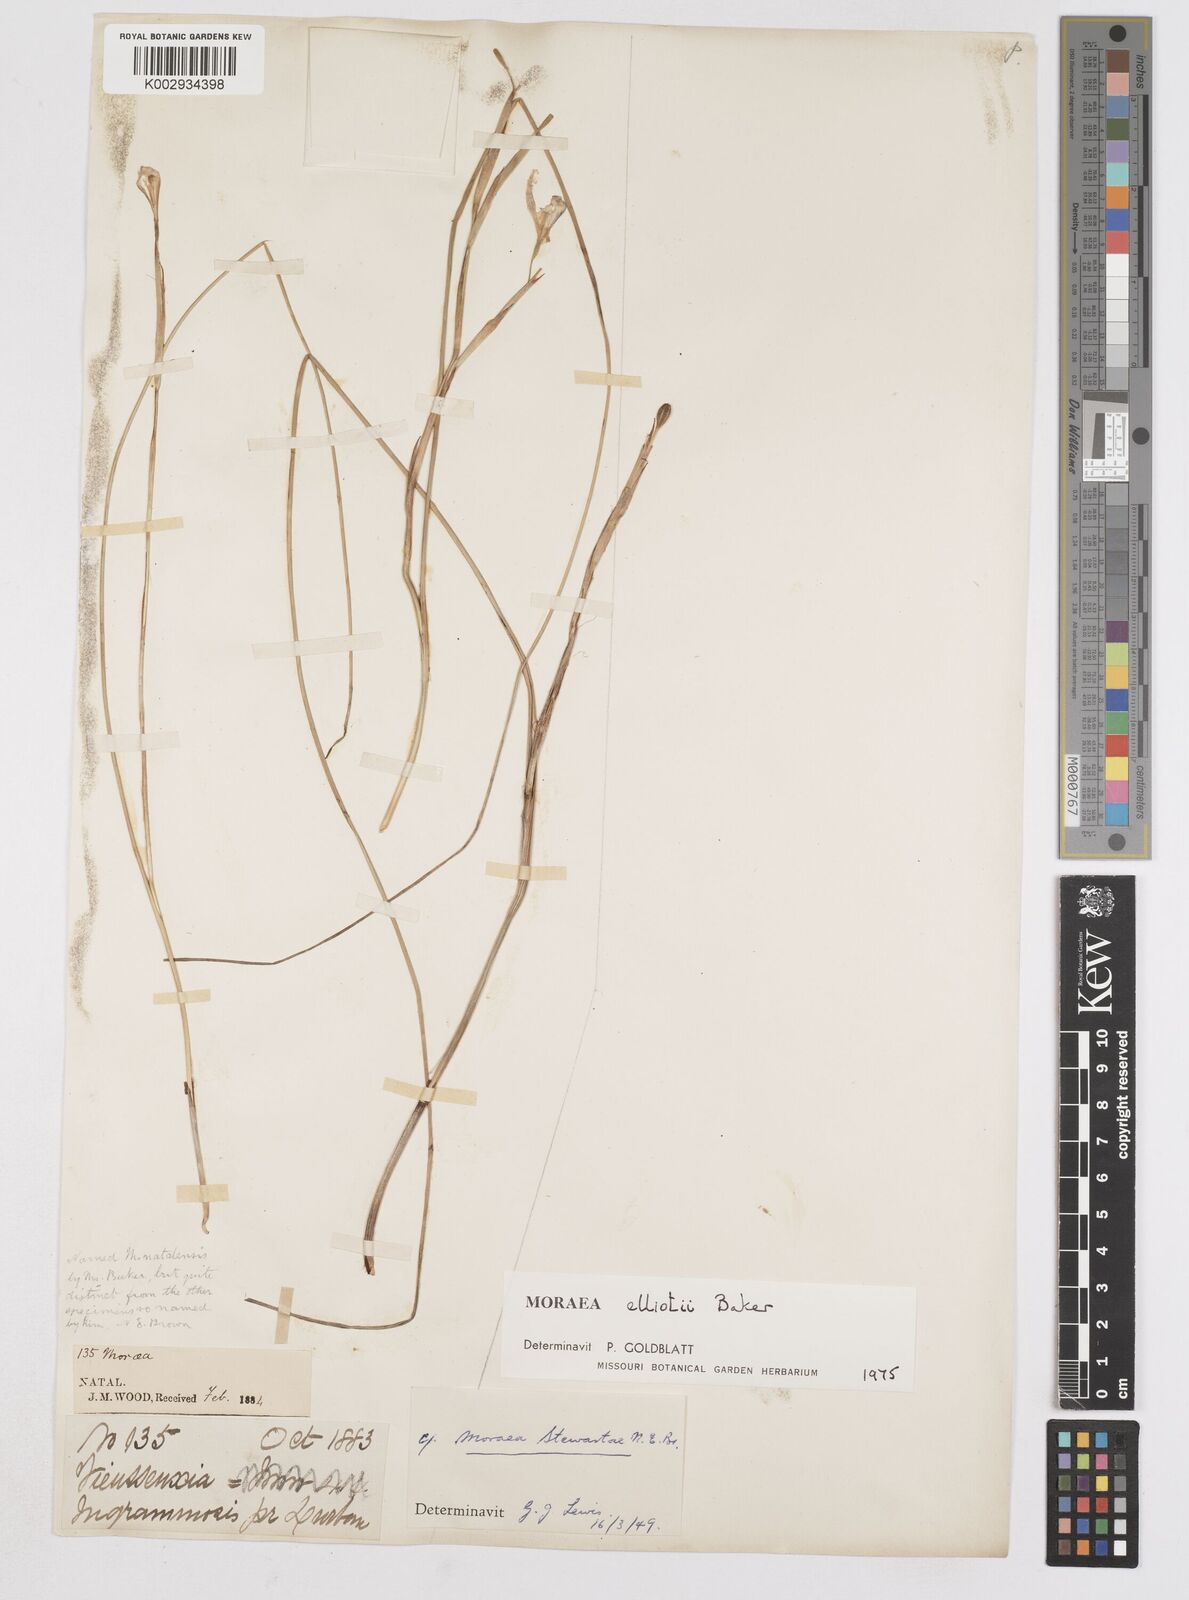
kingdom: Plantae
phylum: Tracheophyta
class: Liliopsida
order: Asparagales
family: Iridaceae
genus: Moraea
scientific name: Moraea elliotii
